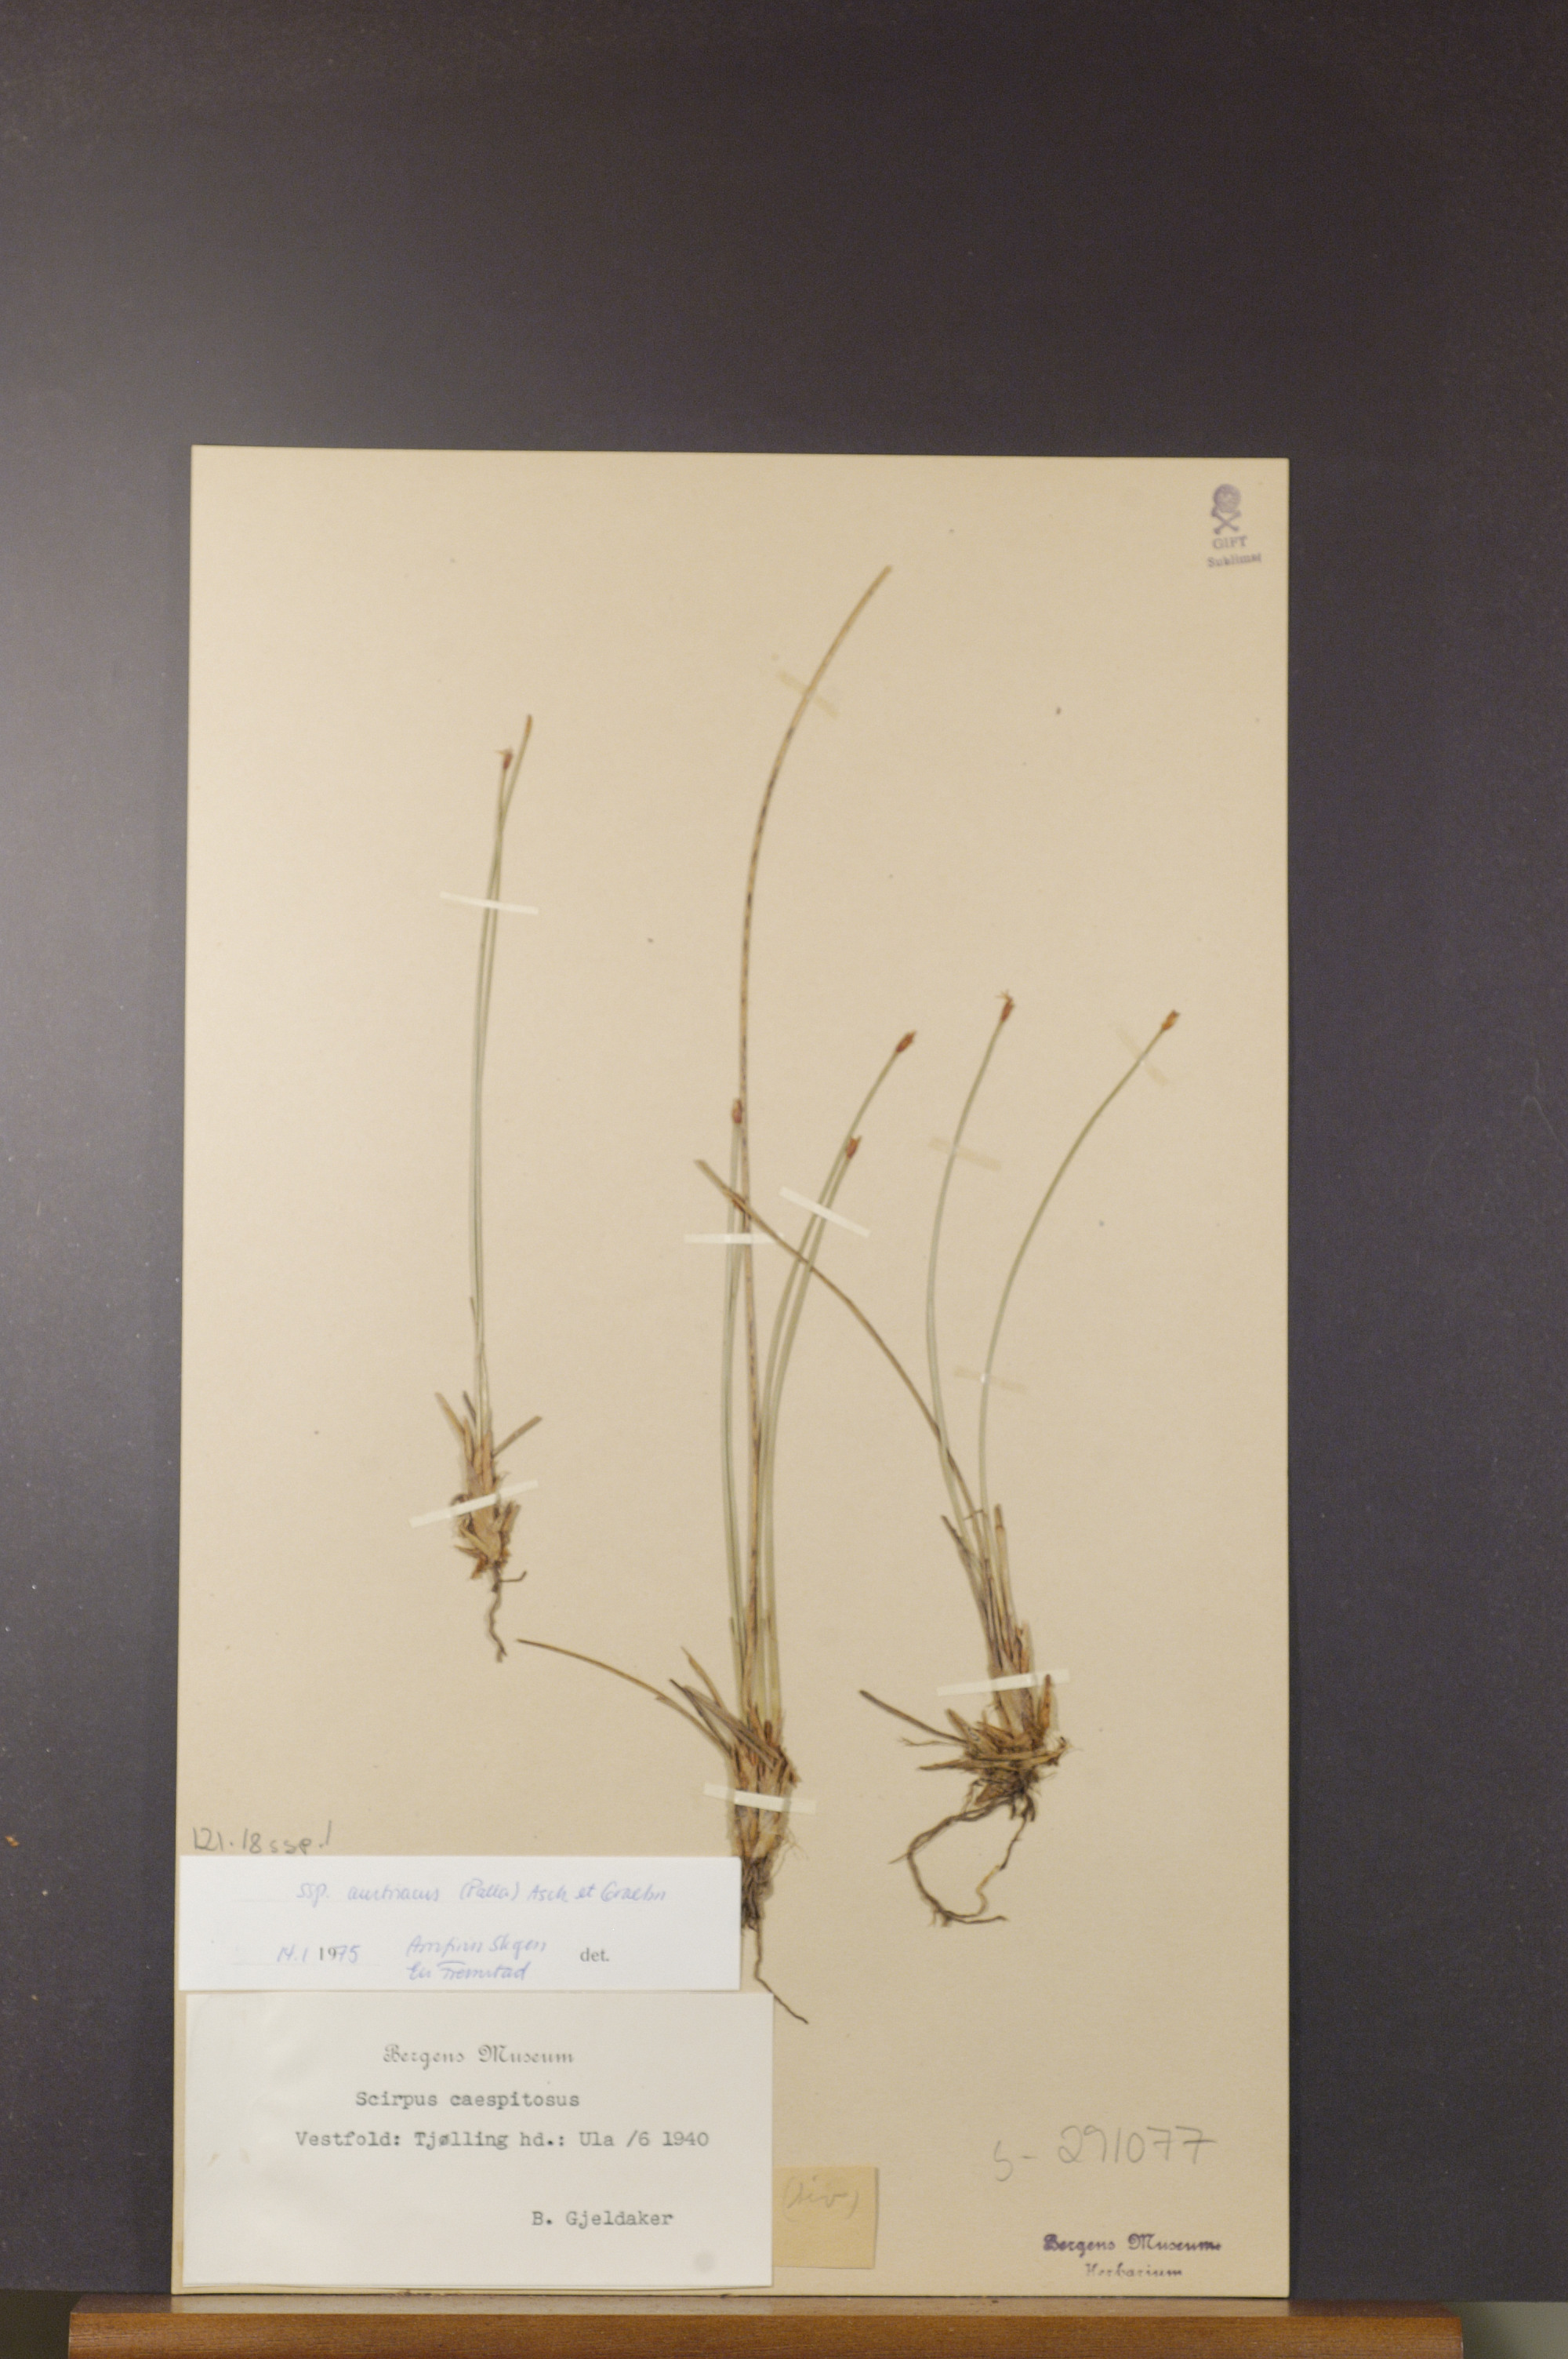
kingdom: Plantae
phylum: Tracheophyta
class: Liliopsida
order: Poales
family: Cyperaceae
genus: Trichophorum
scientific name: Trichophorum cespitosum
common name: Cespitose bulrush
